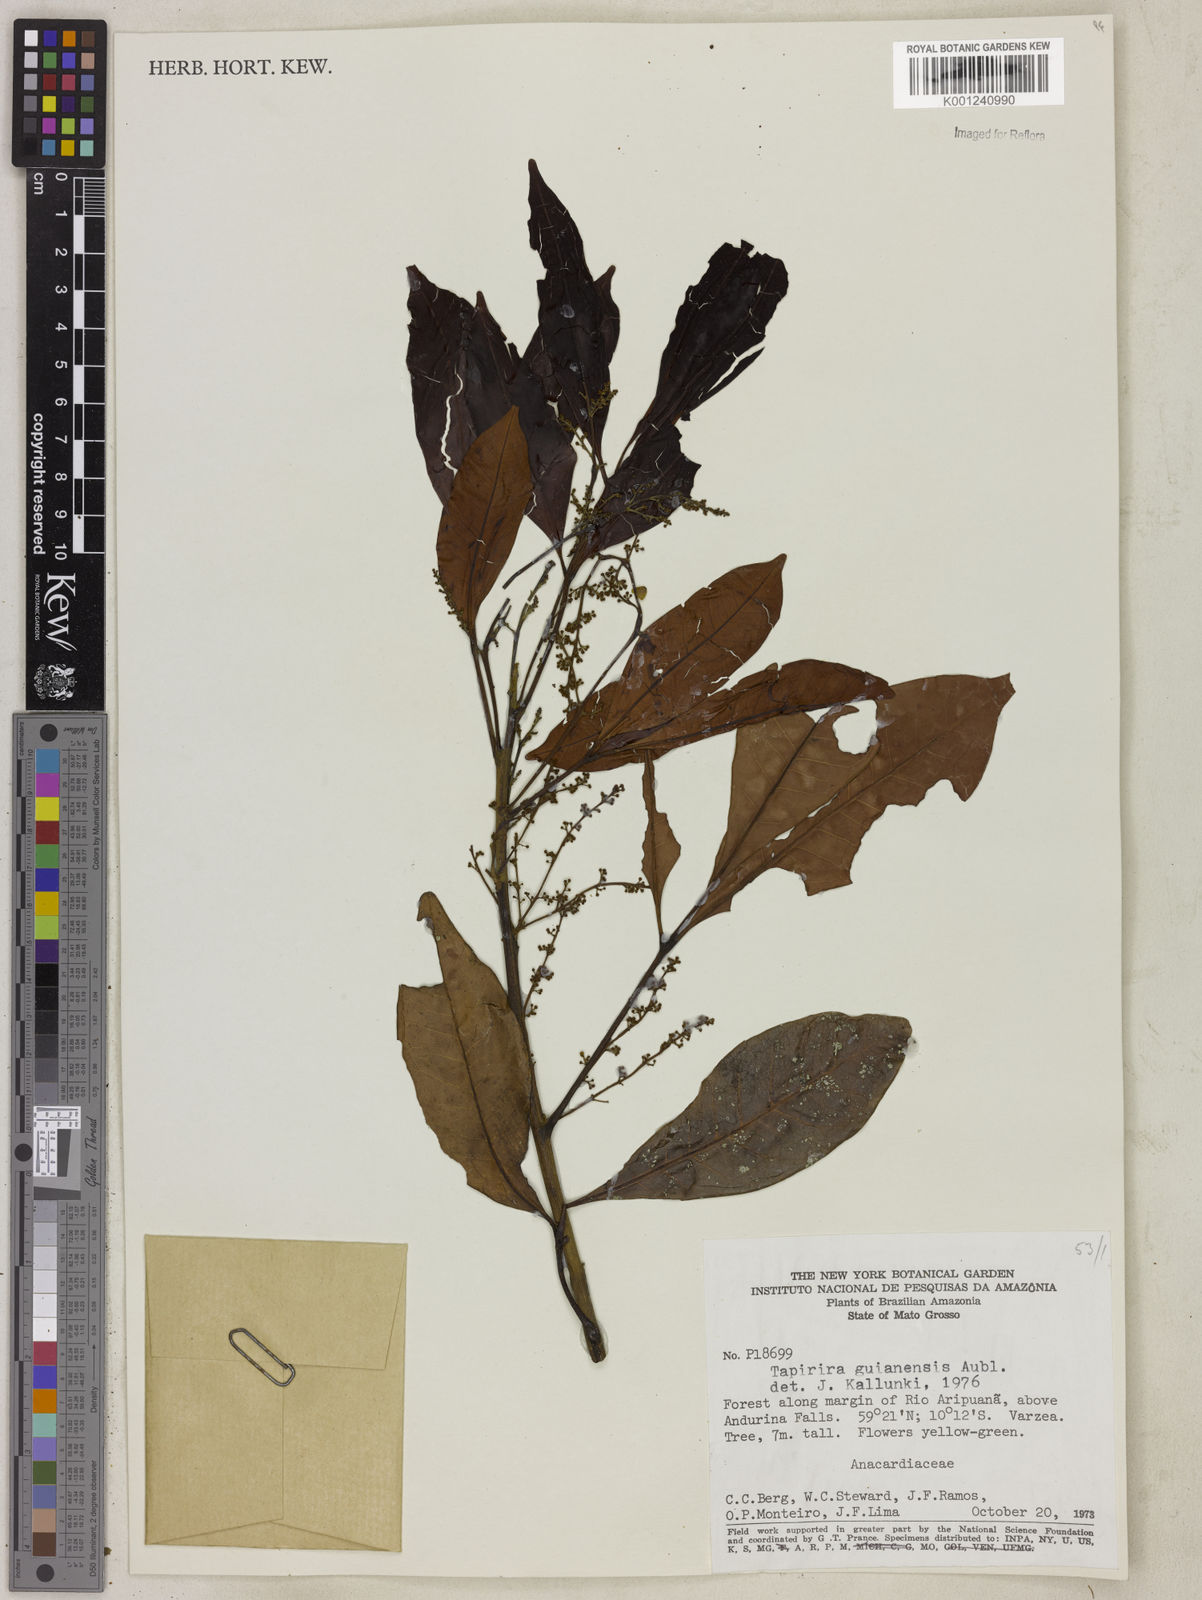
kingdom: Plantae
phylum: Tracheophyta
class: Magnoliopsida
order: Sapindales
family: Anacardiaceae
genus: Tapirira
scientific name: Tapirira guianensis
